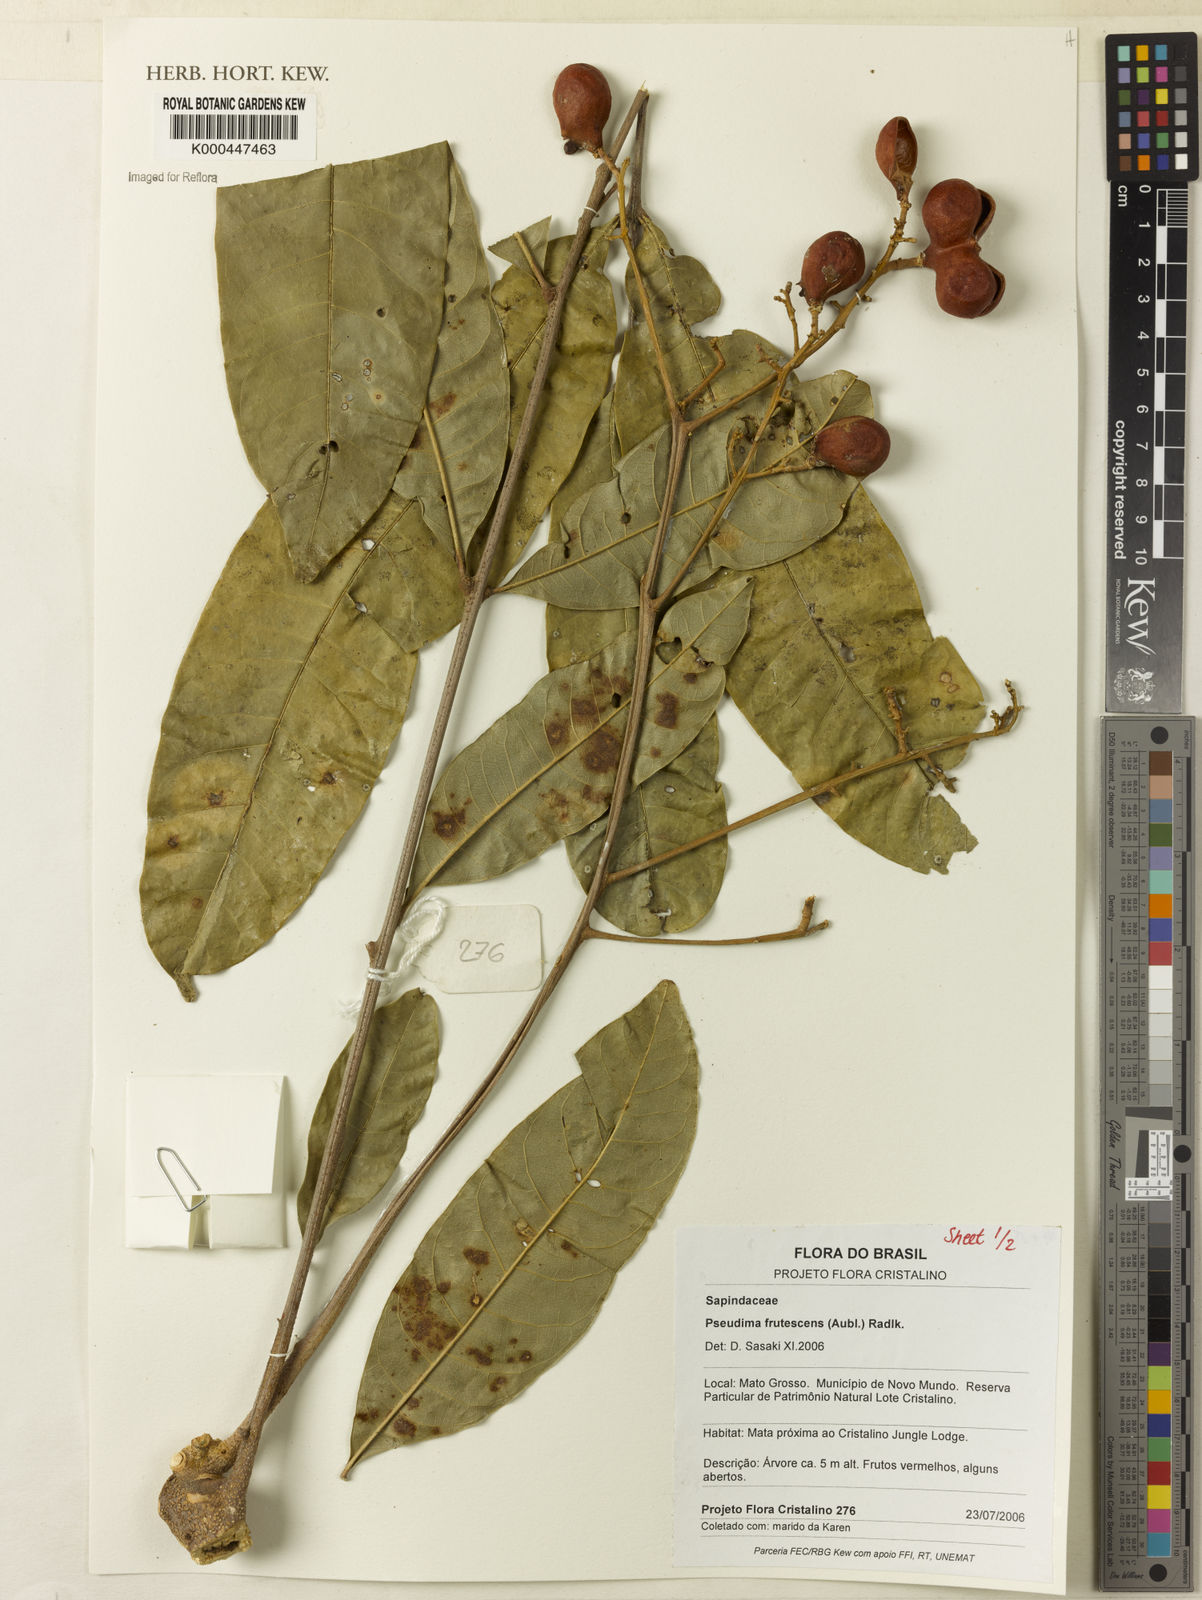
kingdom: Plantae
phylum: Tracheophyta
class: Magnoliopsida
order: Sapindales
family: Sapindaceae
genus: Pseudima
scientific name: Pseudima frutescens
